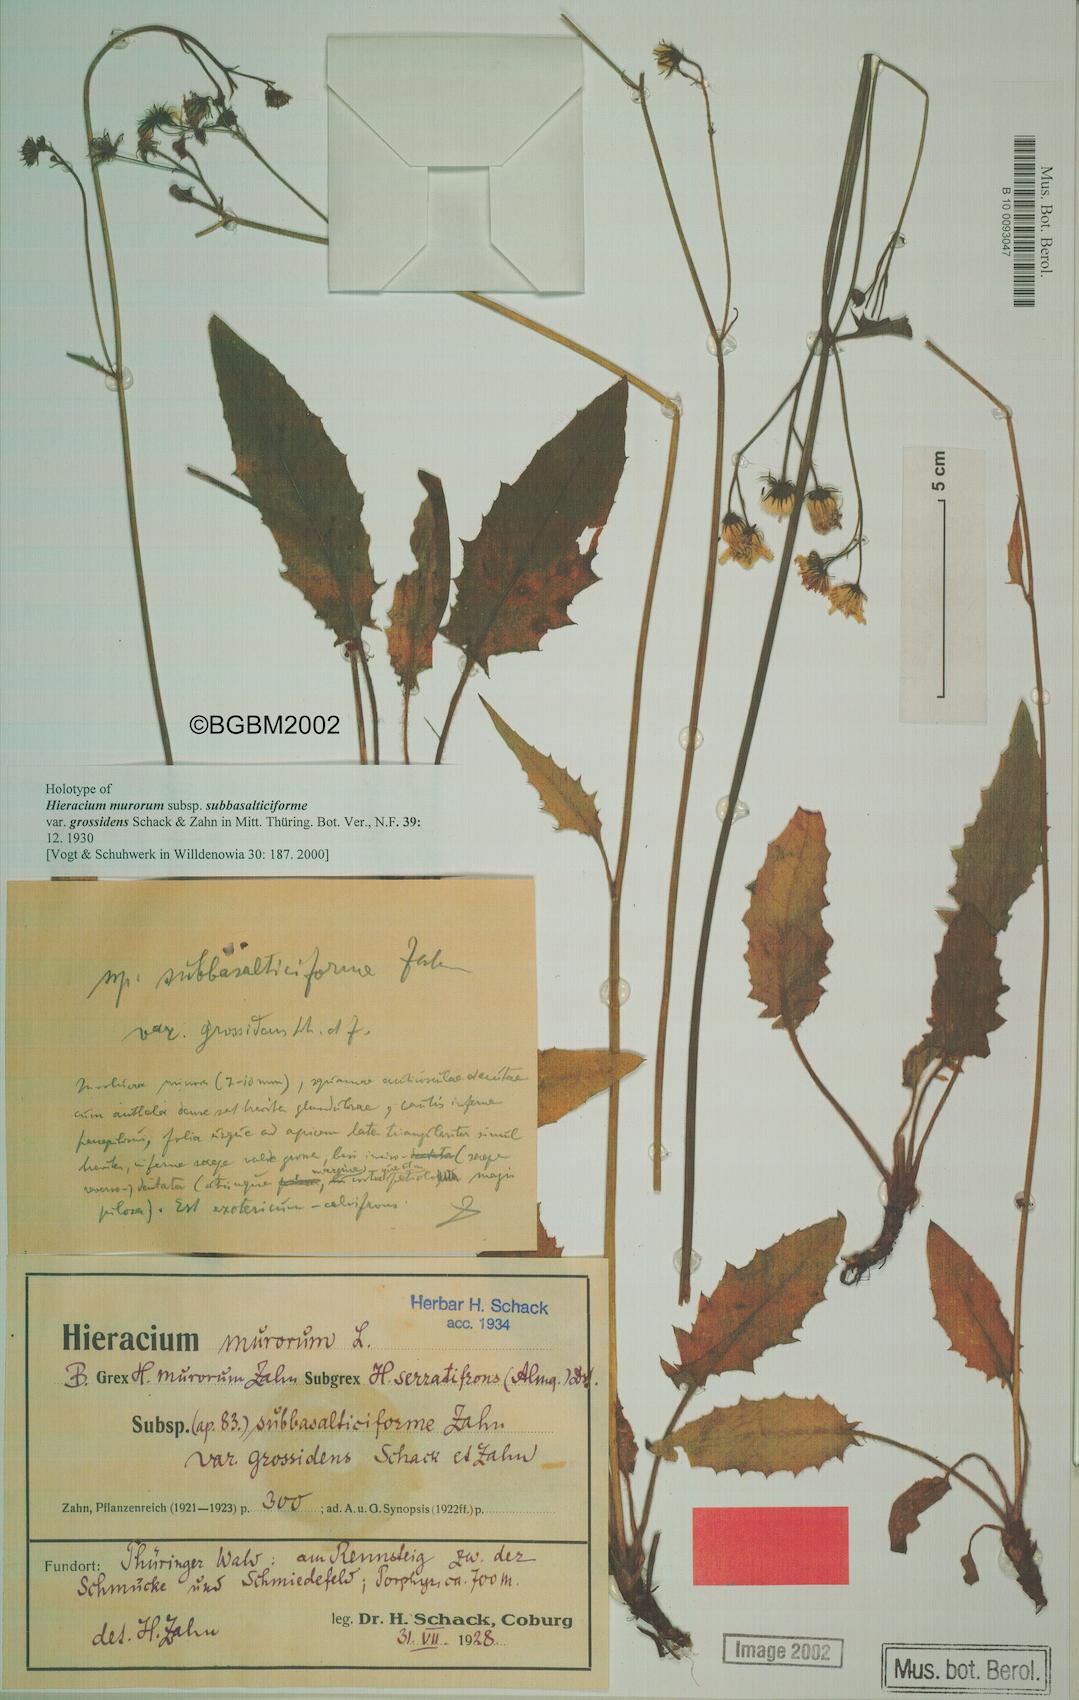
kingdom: Plantae
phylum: Tracheophyta
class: Magnoliopsida
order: Asterales
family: Asteraceae
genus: Hieracium
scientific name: Hieracium murorum
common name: Wall hawkweed
